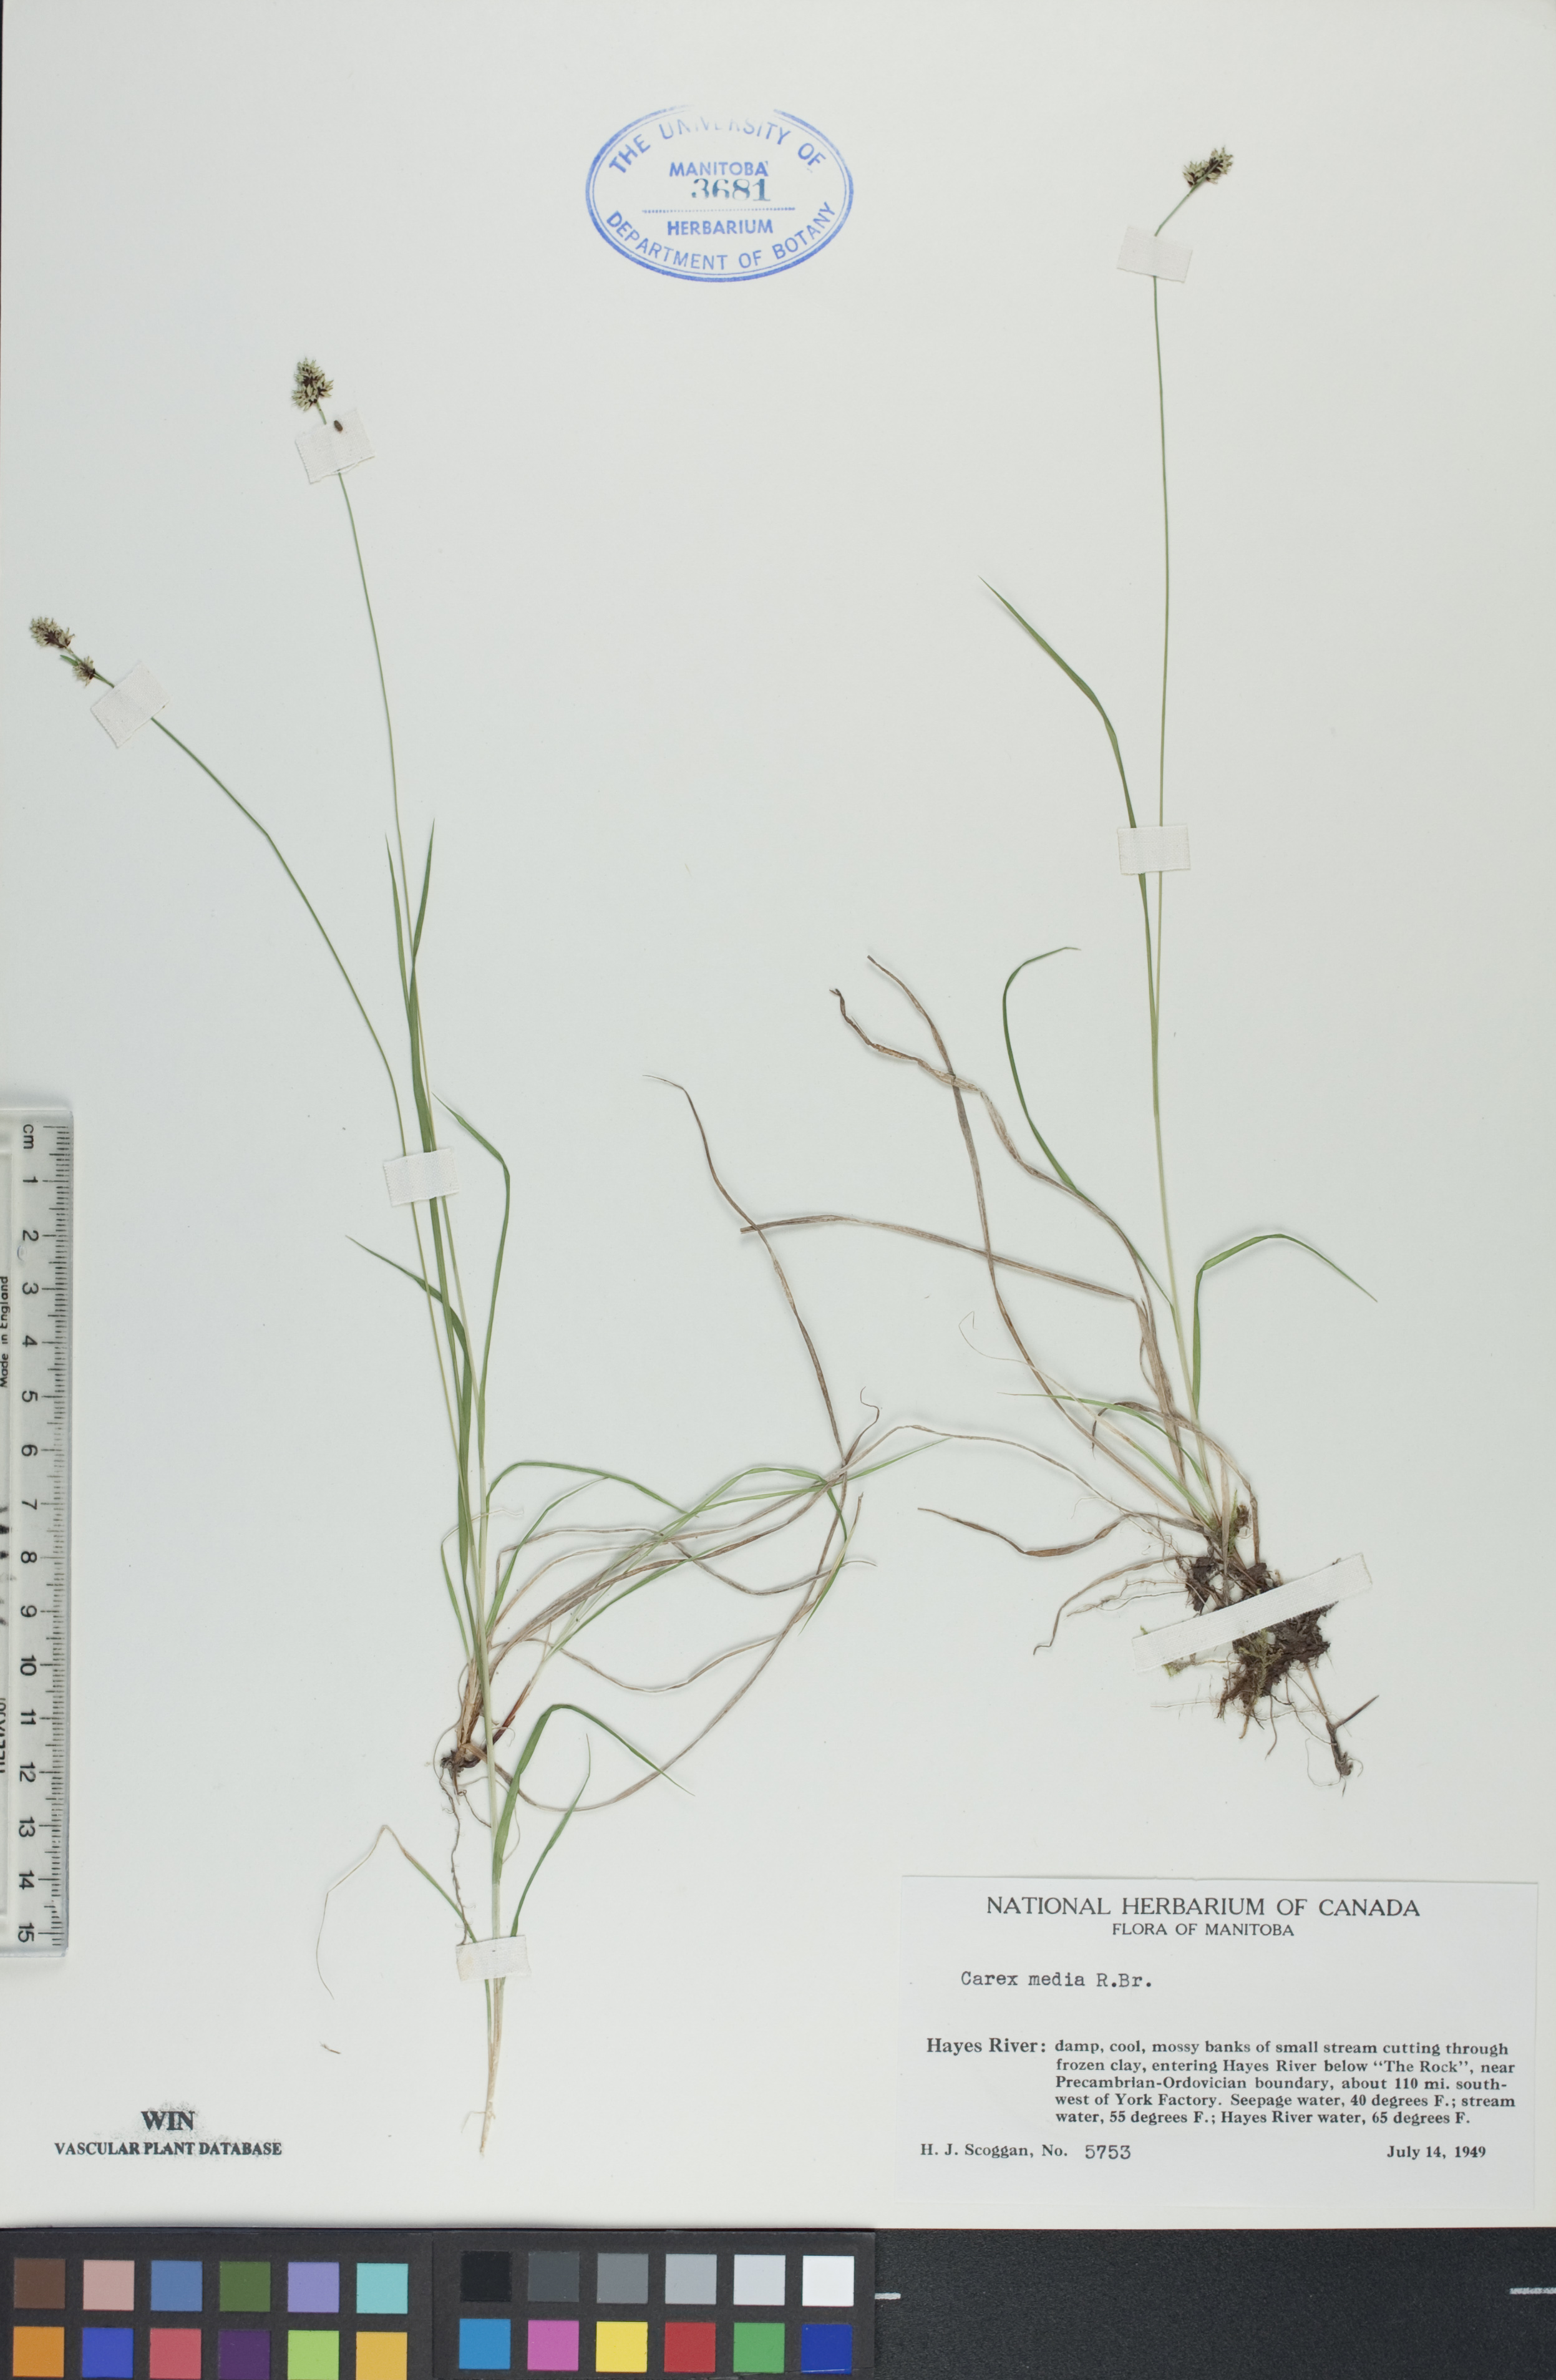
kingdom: Plantae
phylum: Tracheophyta
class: Liliopsida
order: Poales
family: Cyperaceae
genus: Carex
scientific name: Carex media
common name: Alpine sedge
